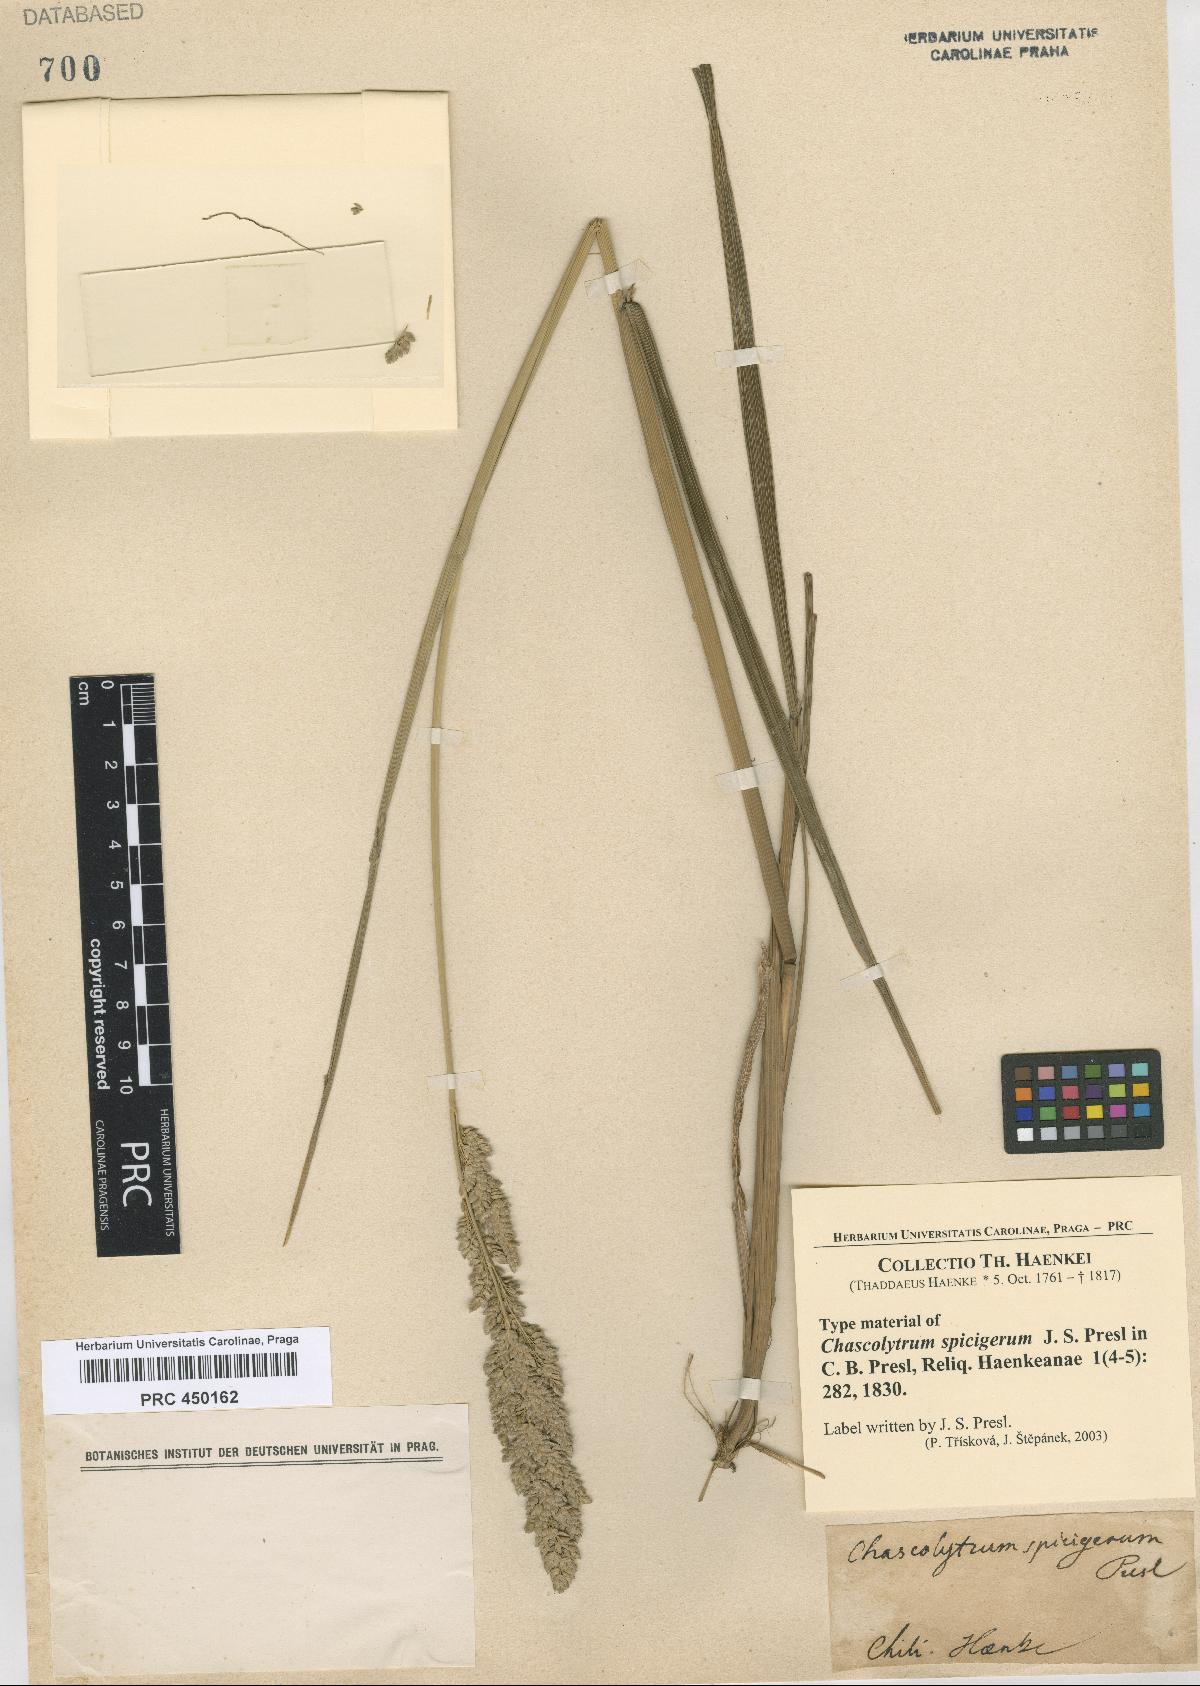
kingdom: Plantae
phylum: Tracheophyta
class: Liliopsida
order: Poales
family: Poaceae
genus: Poidium
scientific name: Poidium uniolae
